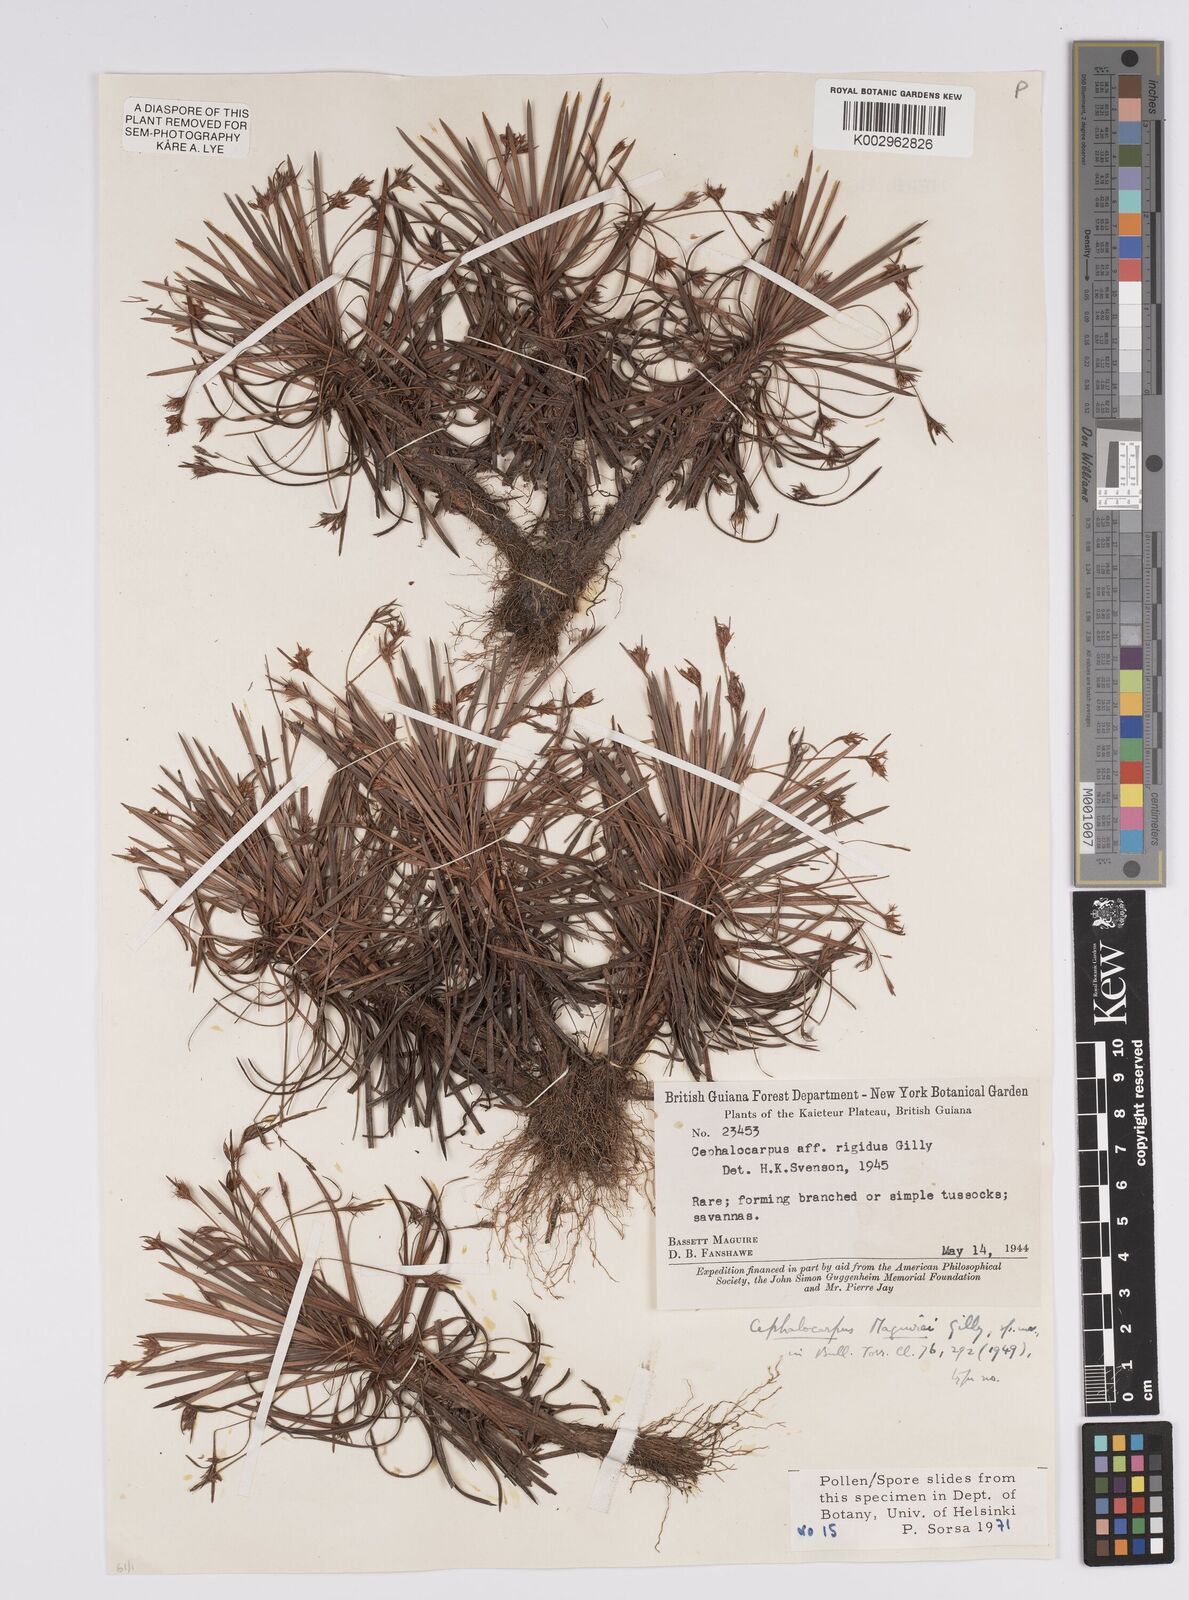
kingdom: Plantae
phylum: Tracheophyta
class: Liliopsida
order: Poales
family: Cyperaceae
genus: Cephalocarpus
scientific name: Cephalocarpus rigidus
